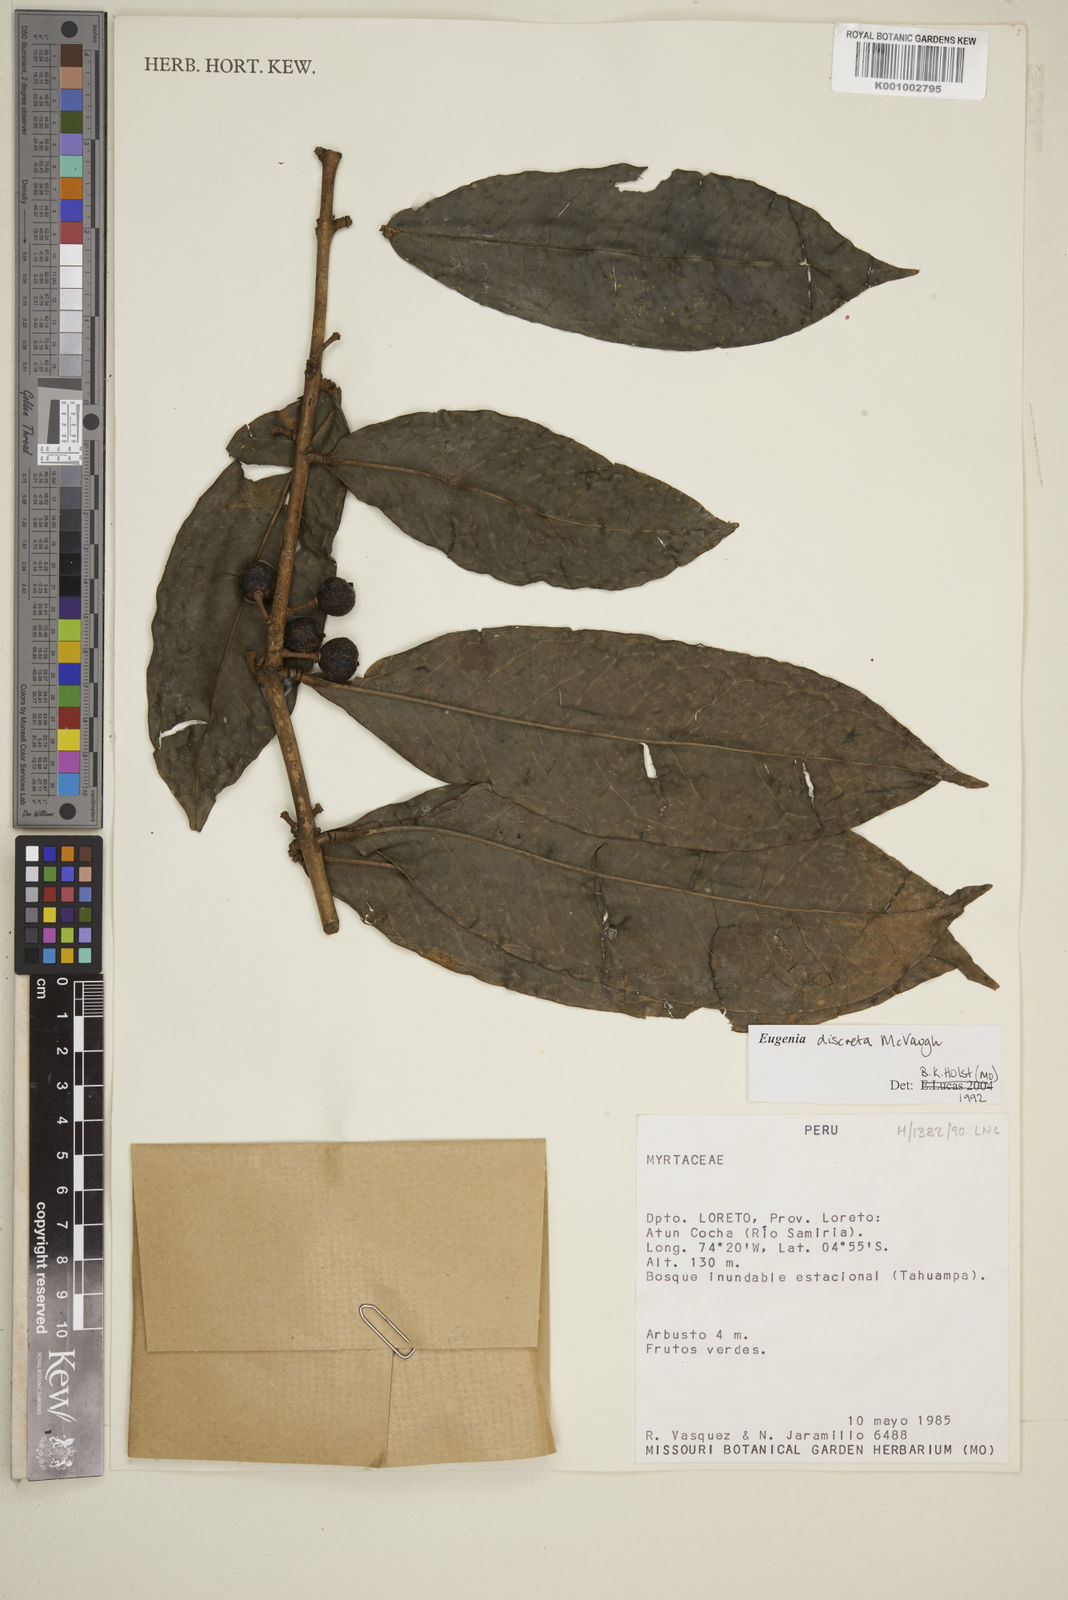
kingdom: Plantae
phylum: Tracheophyta
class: Magnoliopsida
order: Myrtales
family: Myrtaceae
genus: Eugenia
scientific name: Eugenia discreta
